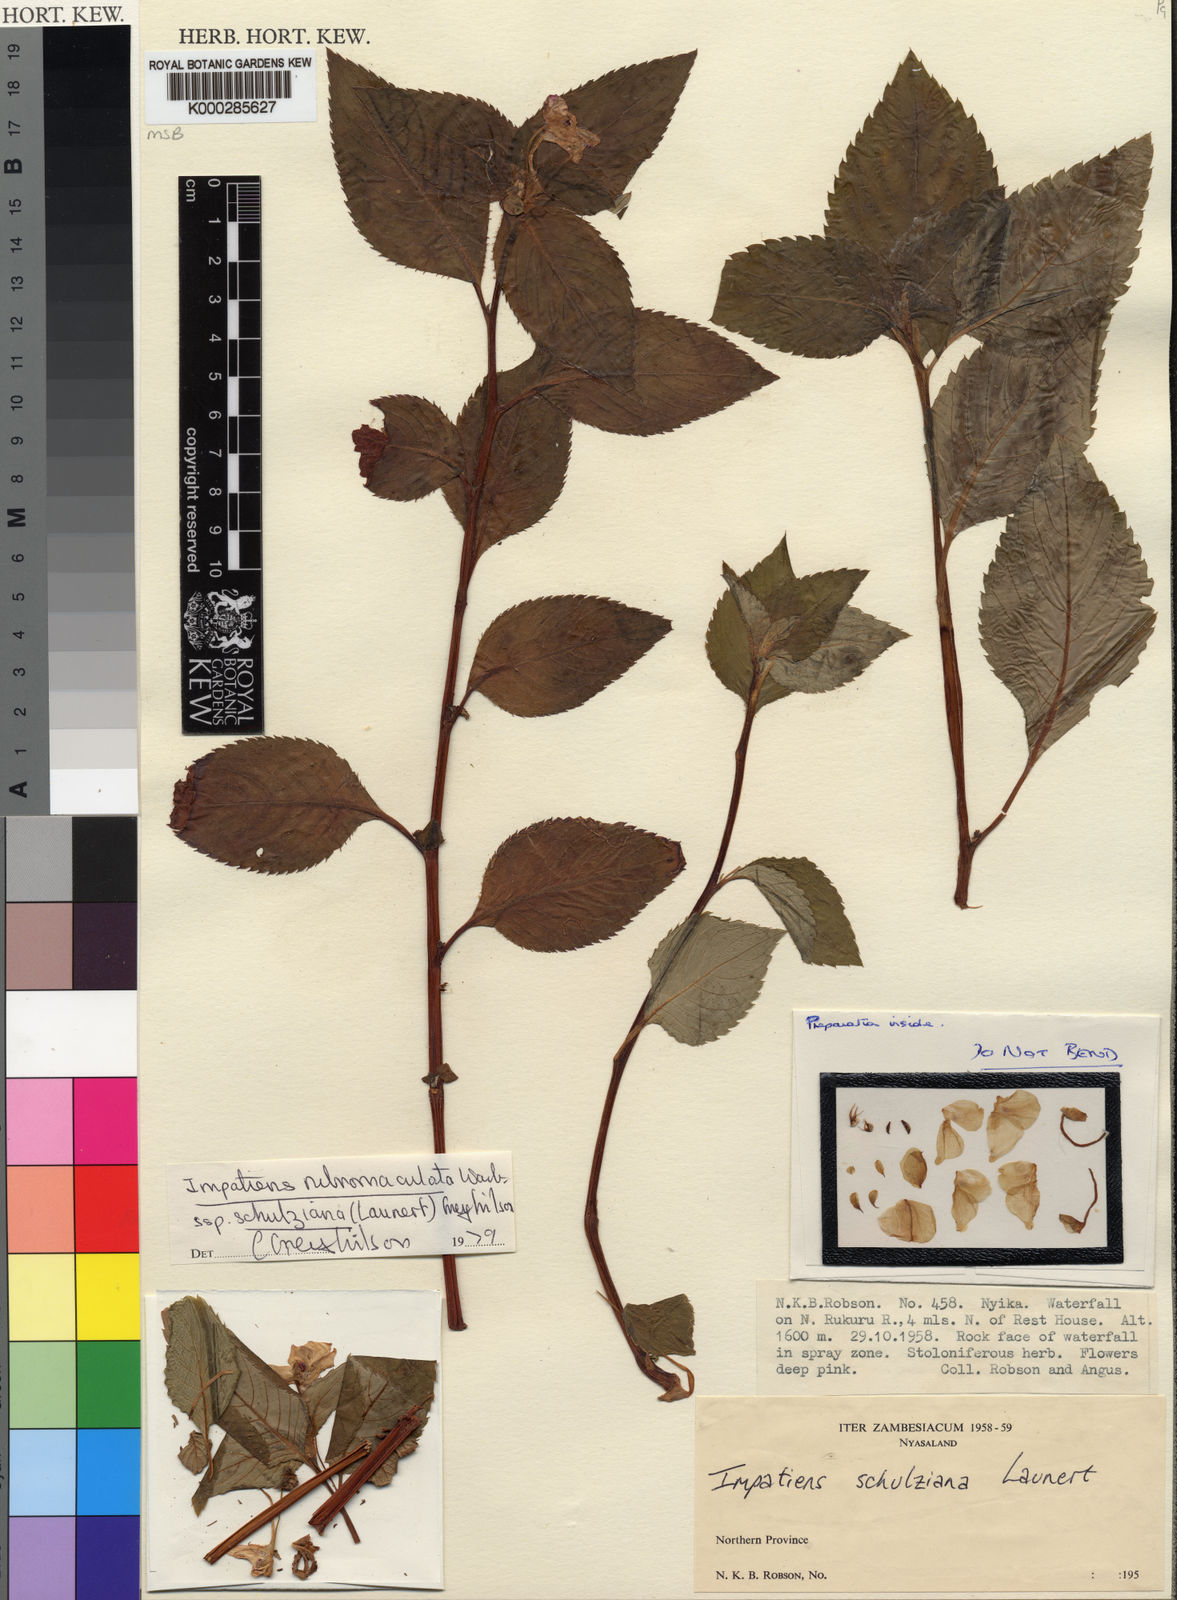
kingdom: Plantae
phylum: Tracheophyta
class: Magnoliopsida
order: Ericales
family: Balsaminaceae
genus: Impatiens
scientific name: Impatiens rubromaculata
